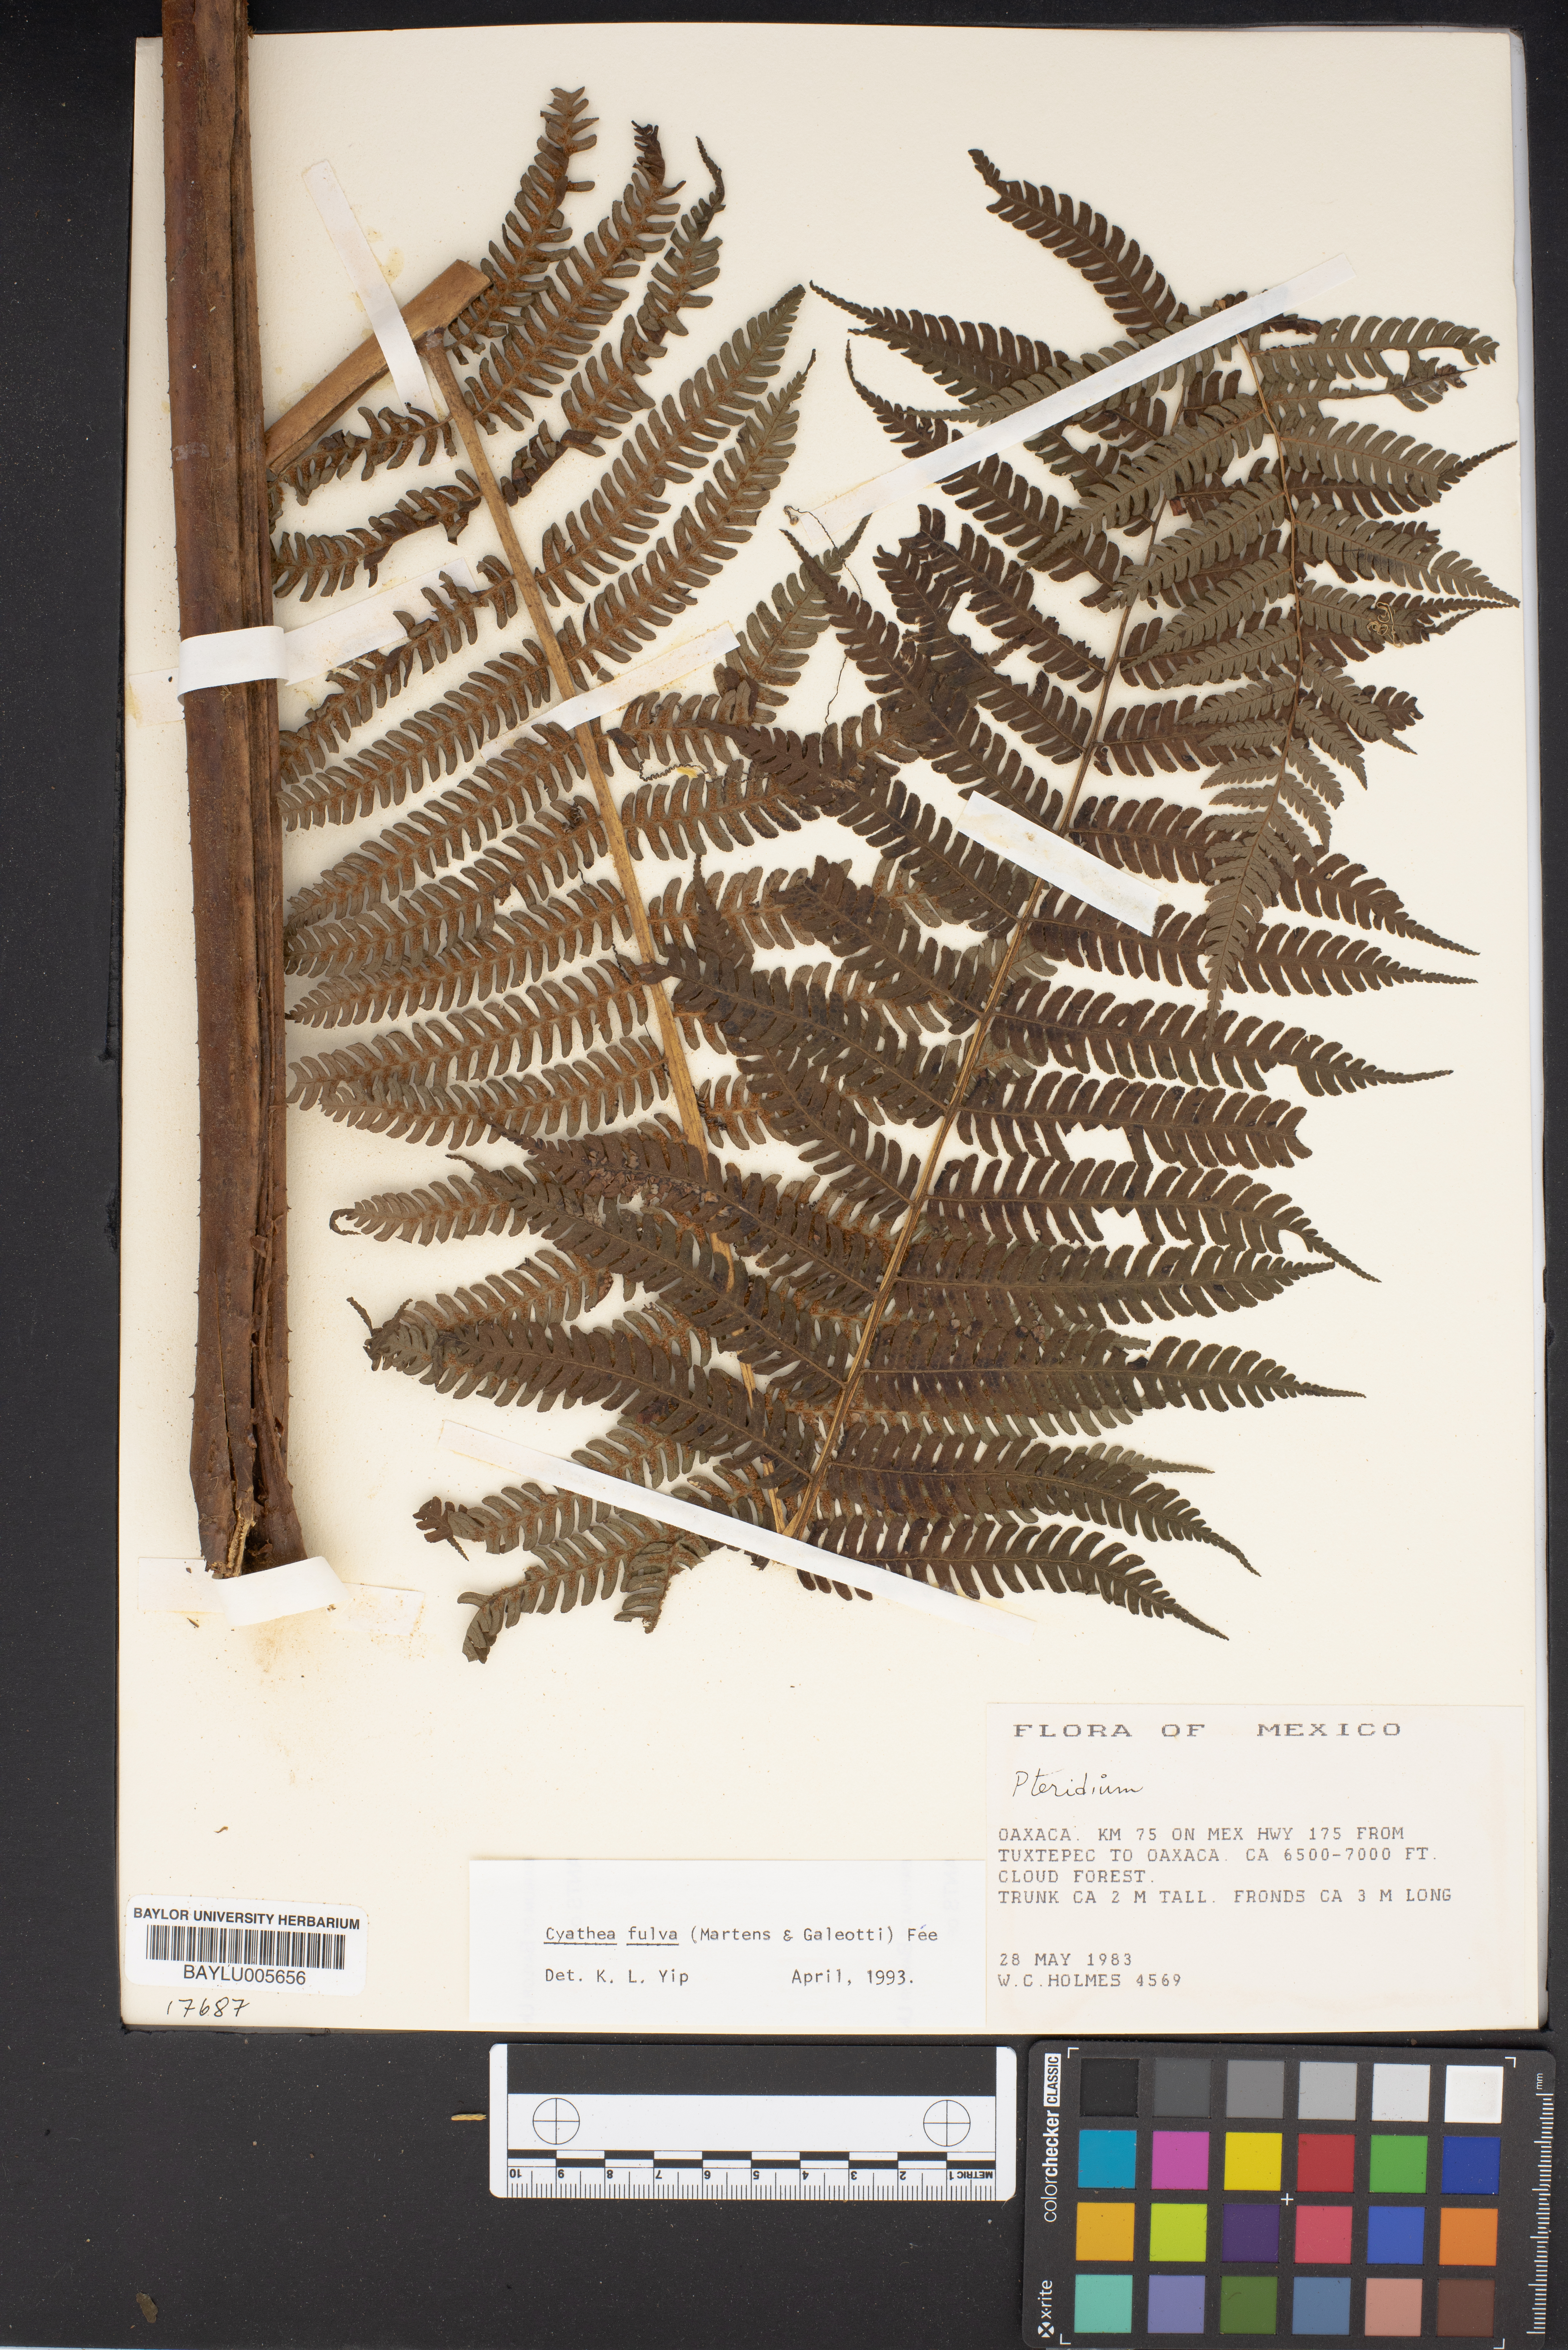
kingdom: Plantae
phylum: Tracheophyta
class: Polypodiopsida
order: Polypodiales
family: Dennstaedtiaceae
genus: Pteridium
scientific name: Pteridium
